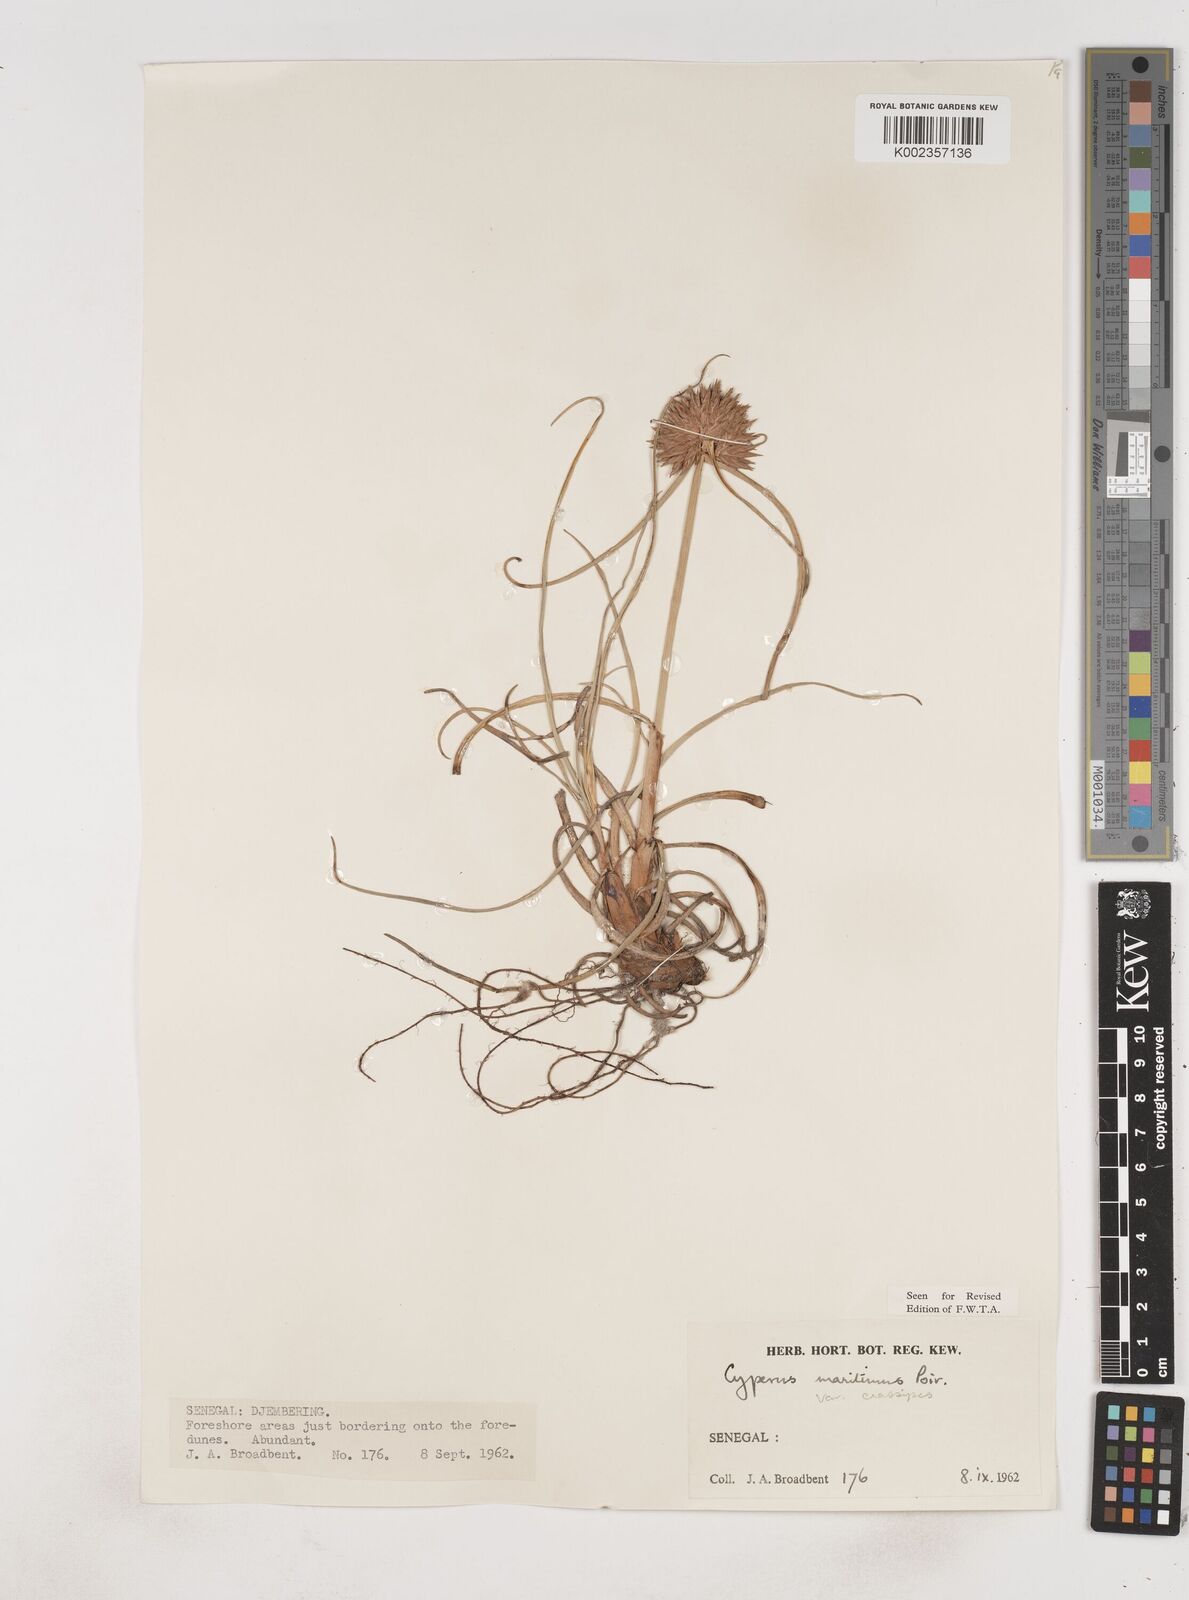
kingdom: Plantae
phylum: Tracheophyta
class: Liliopsida
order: Poales
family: Cyperaceae
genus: Cyperus
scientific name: Cyperus crassipes
